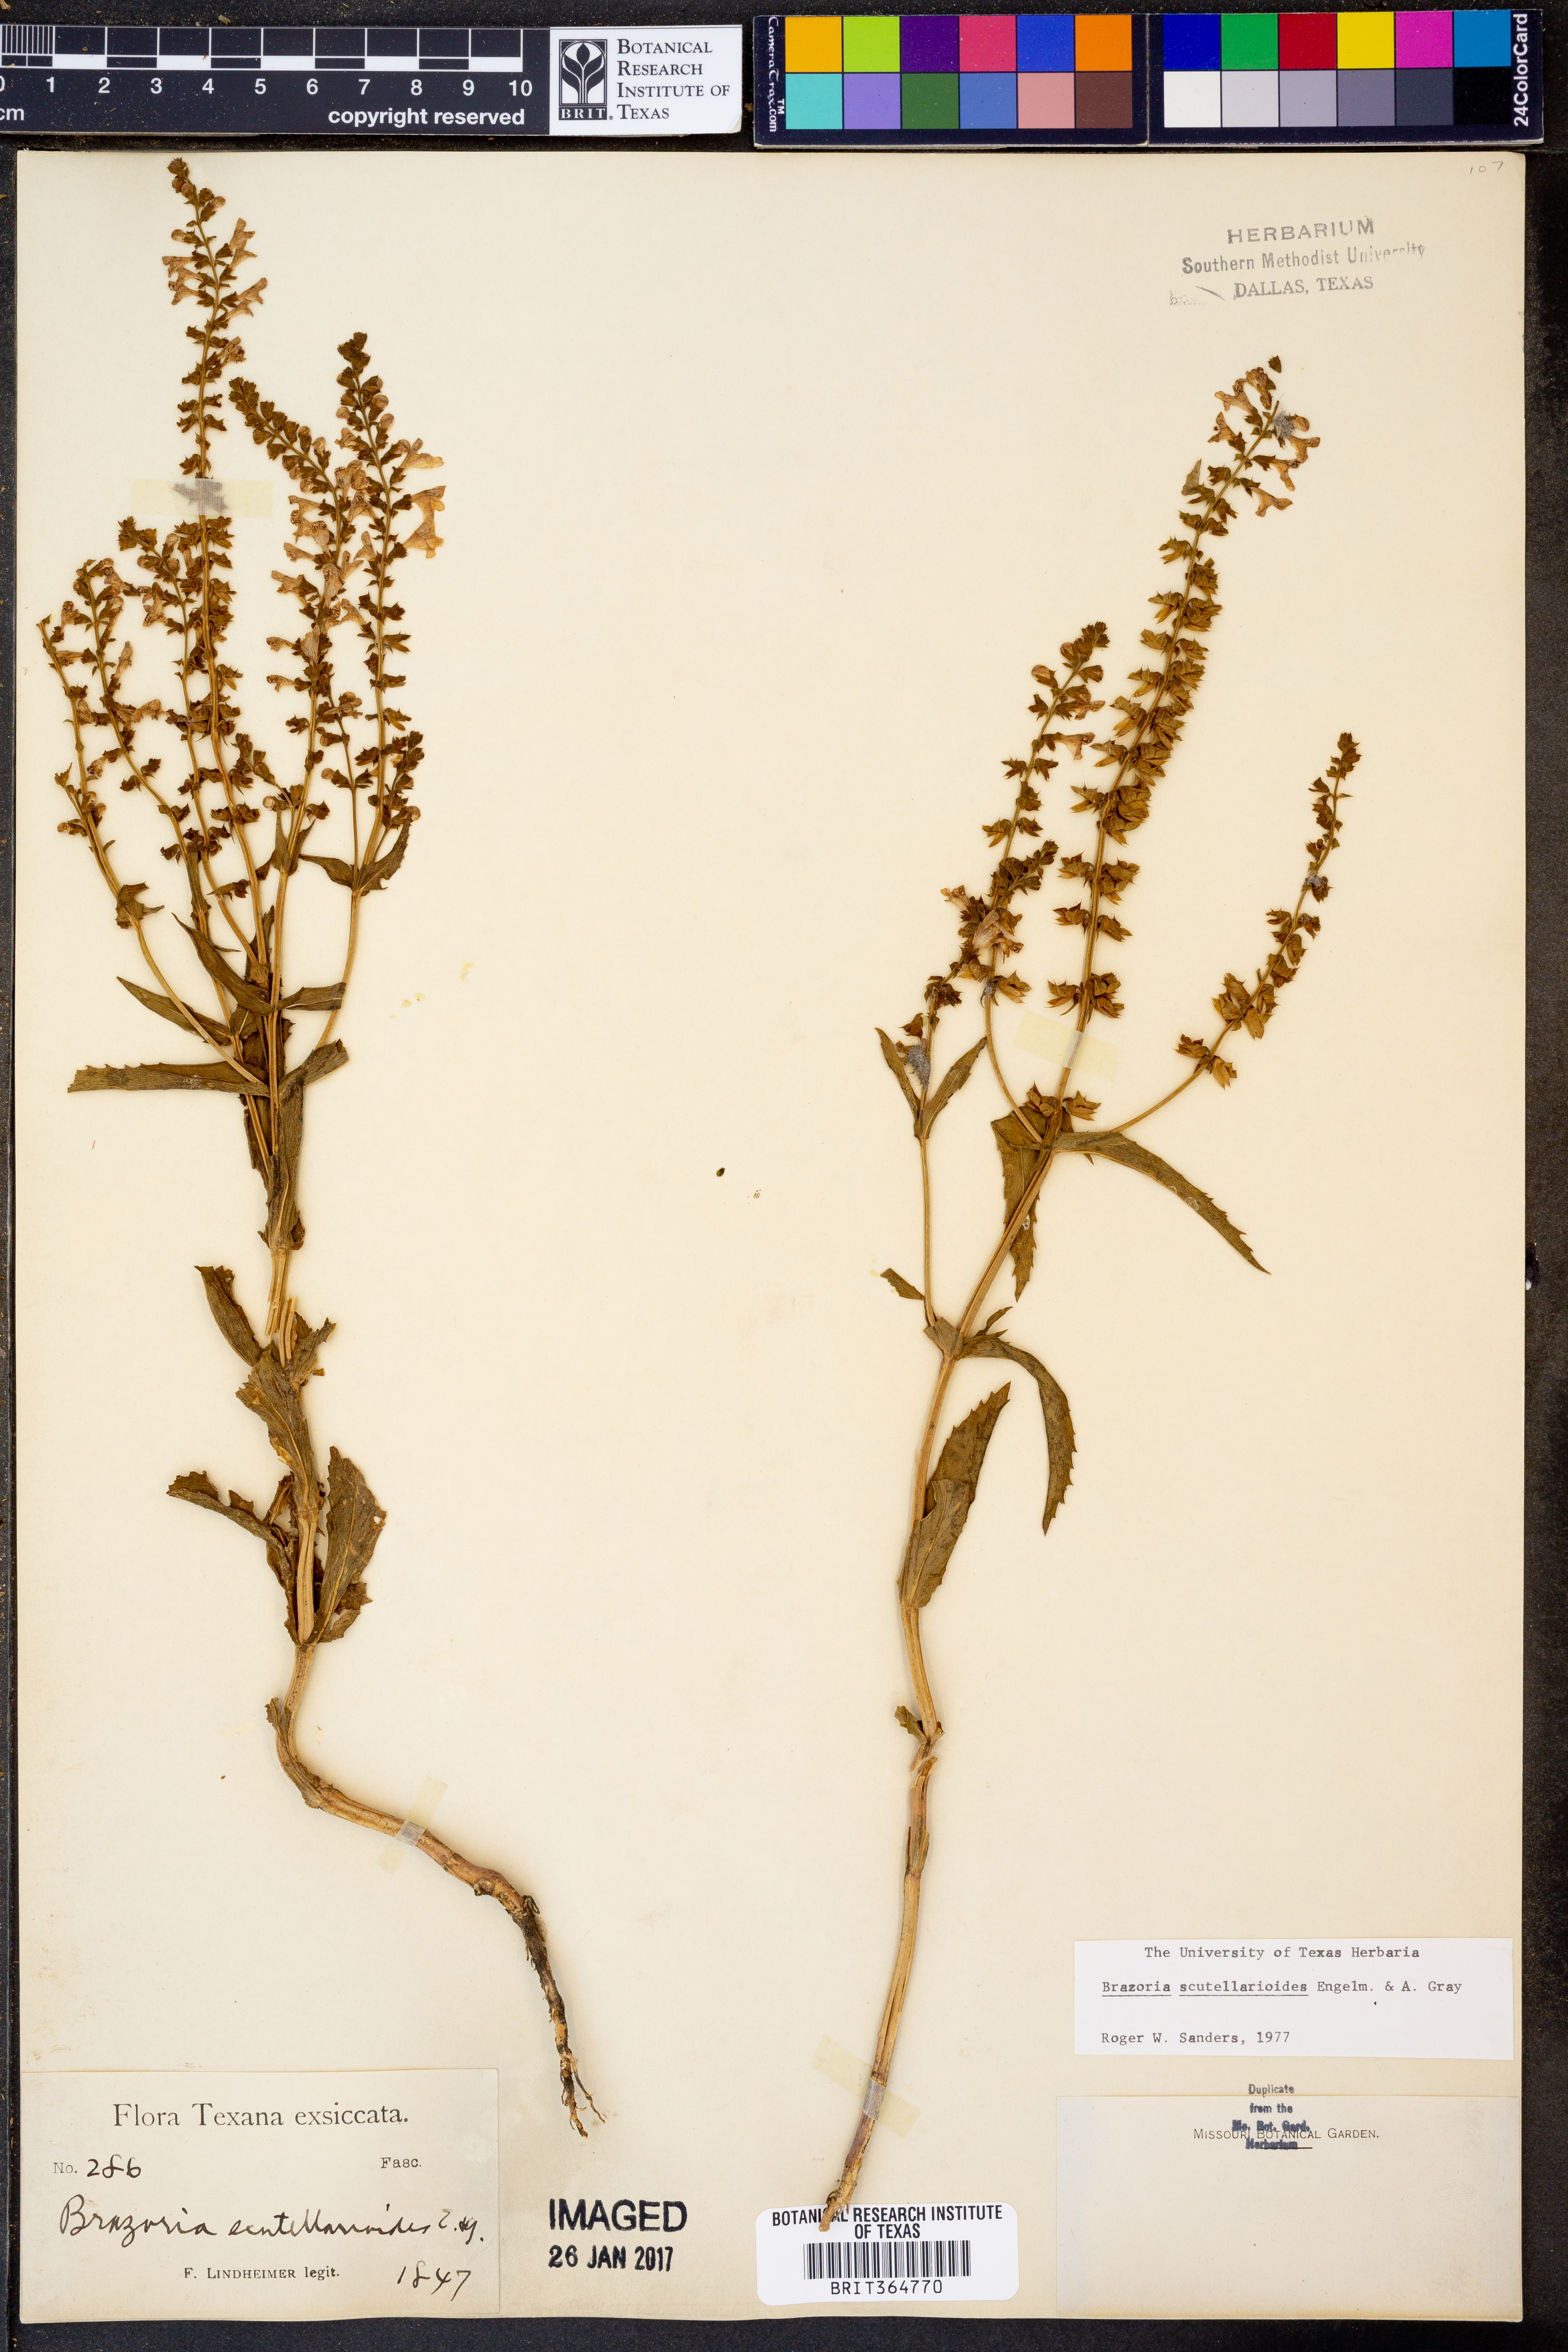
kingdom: Plantae
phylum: Tracheophyta
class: Magnoliopsida
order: Lamiales
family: Lamiaceae
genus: Warnockia
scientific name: Warnockia scutellarioides
